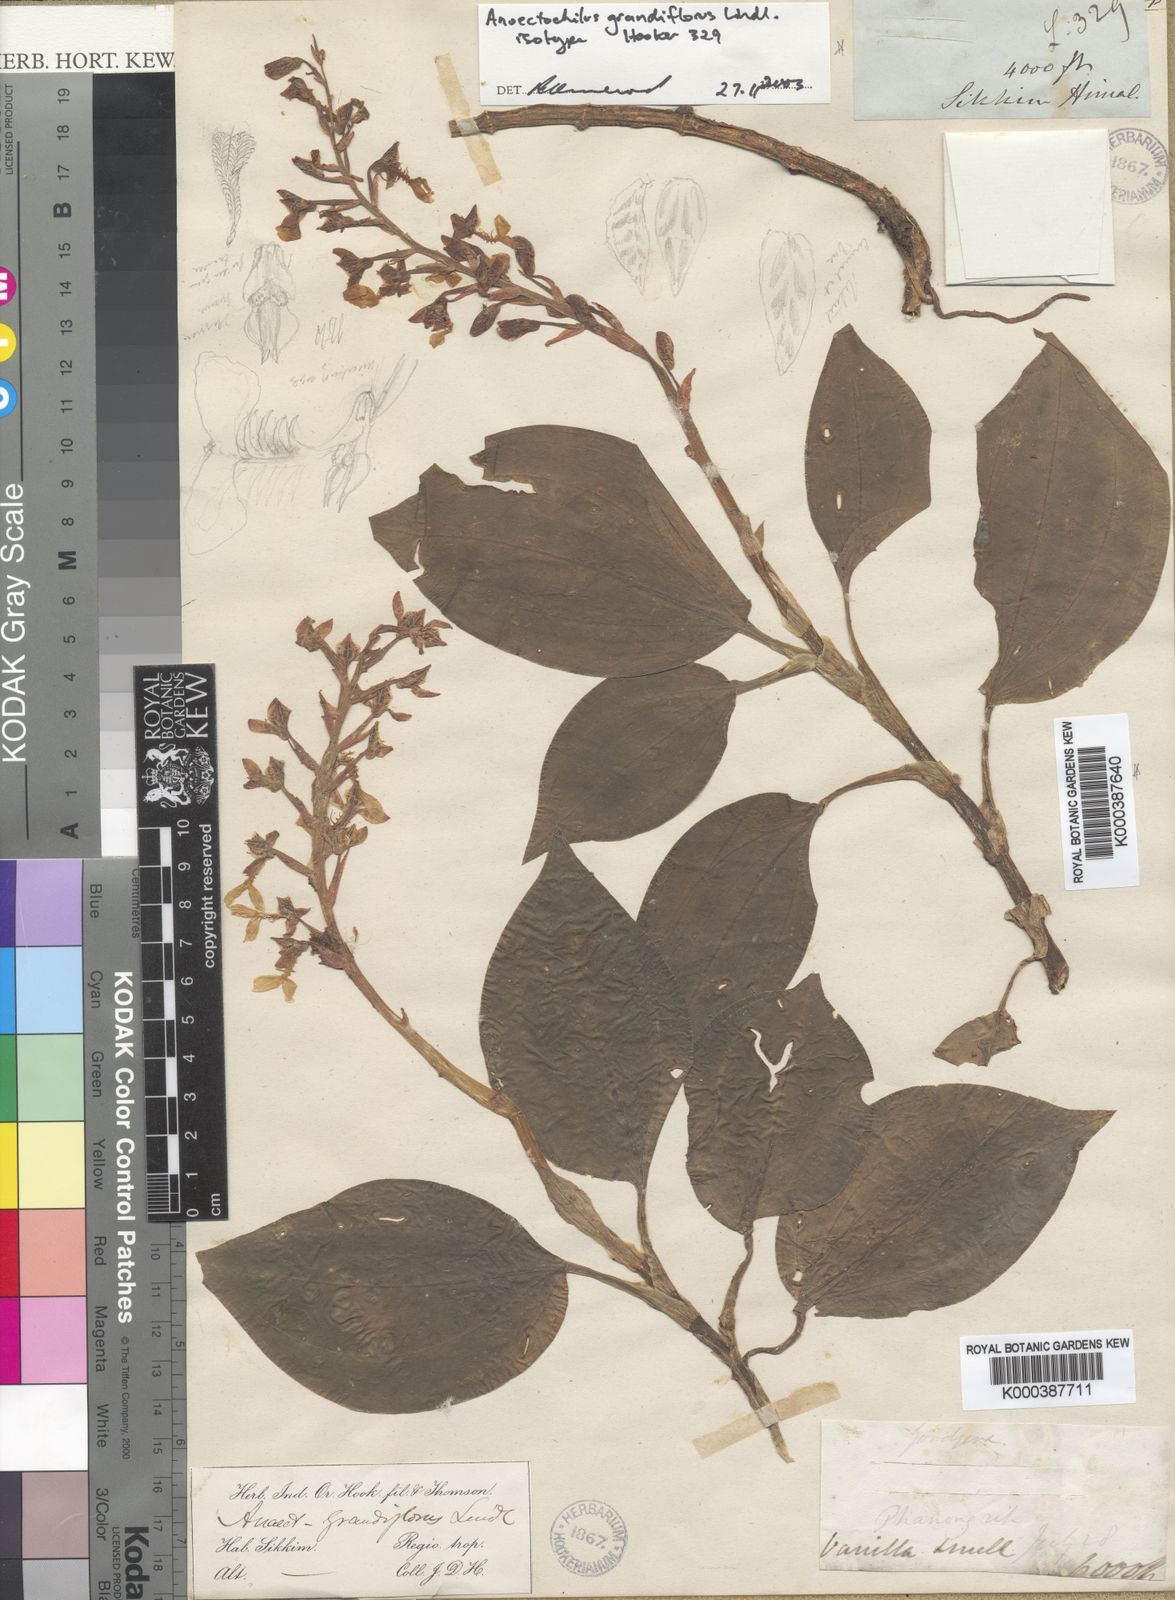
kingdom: Plantae
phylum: Tracheophyta
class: Liliopsida
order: Asparagales
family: Orchidaceae
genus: Odontochilus
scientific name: Odontochilus grandiflorus
